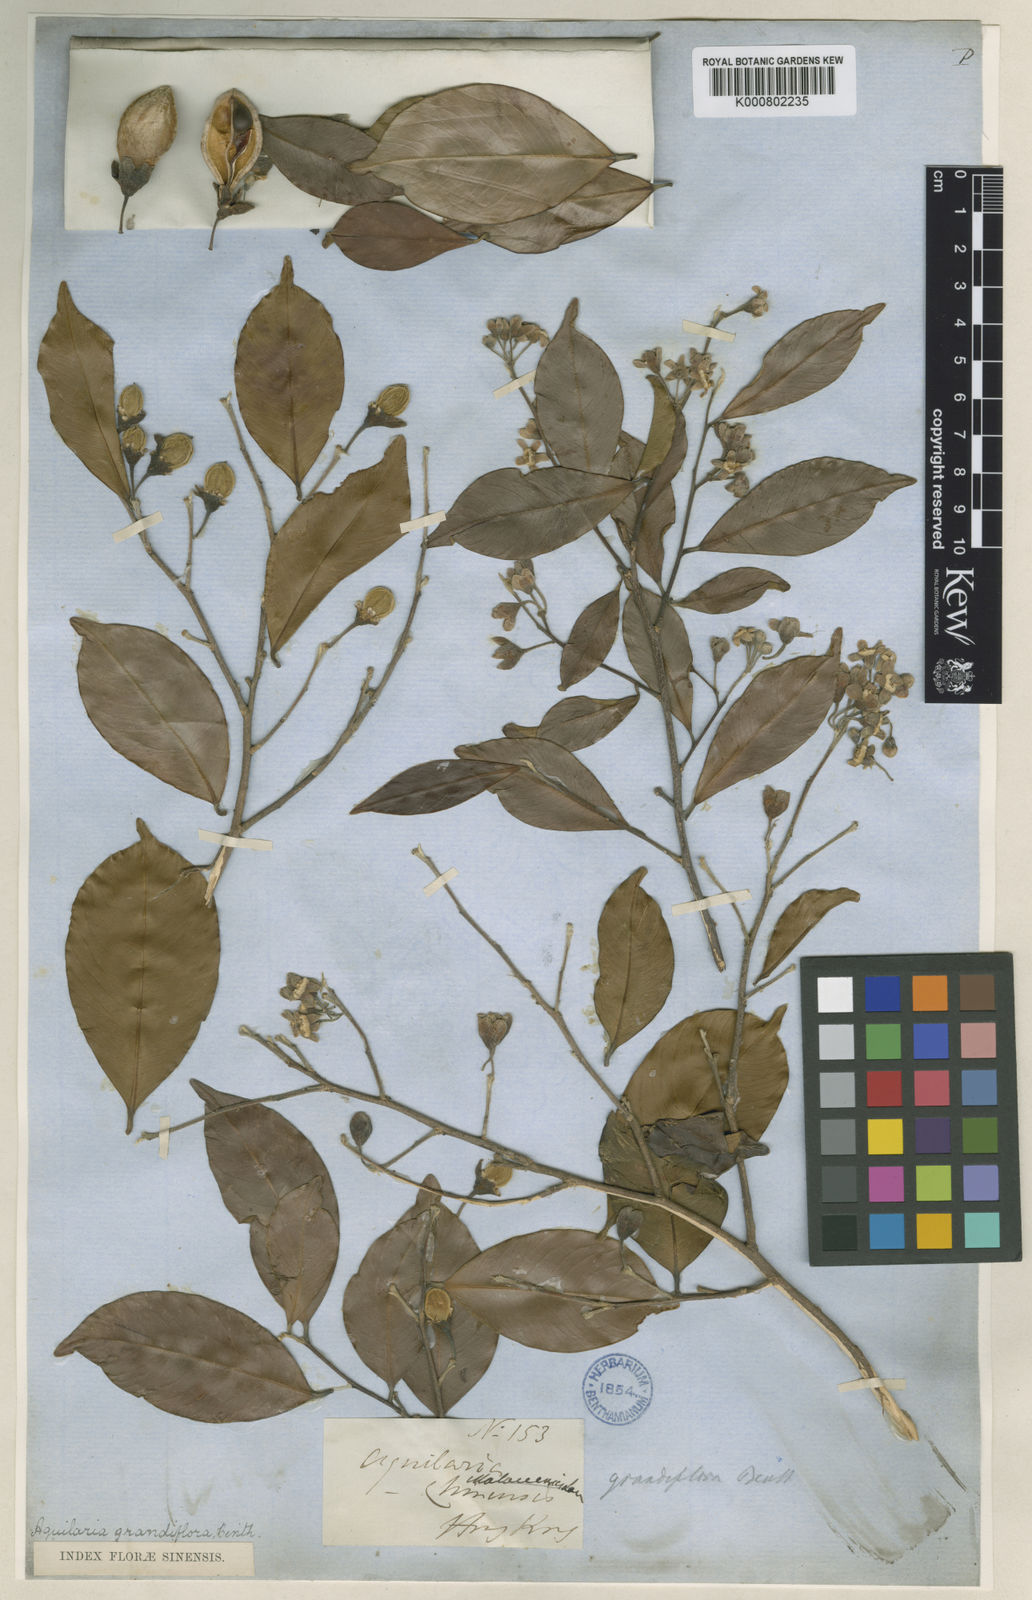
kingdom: Plantae
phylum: Tracheophyta
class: Magnoliopsida
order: Malvales
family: Thymelaeaceae
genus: Aquilaria
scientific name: Aquilaria sinensis
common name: Chinese agarwood
